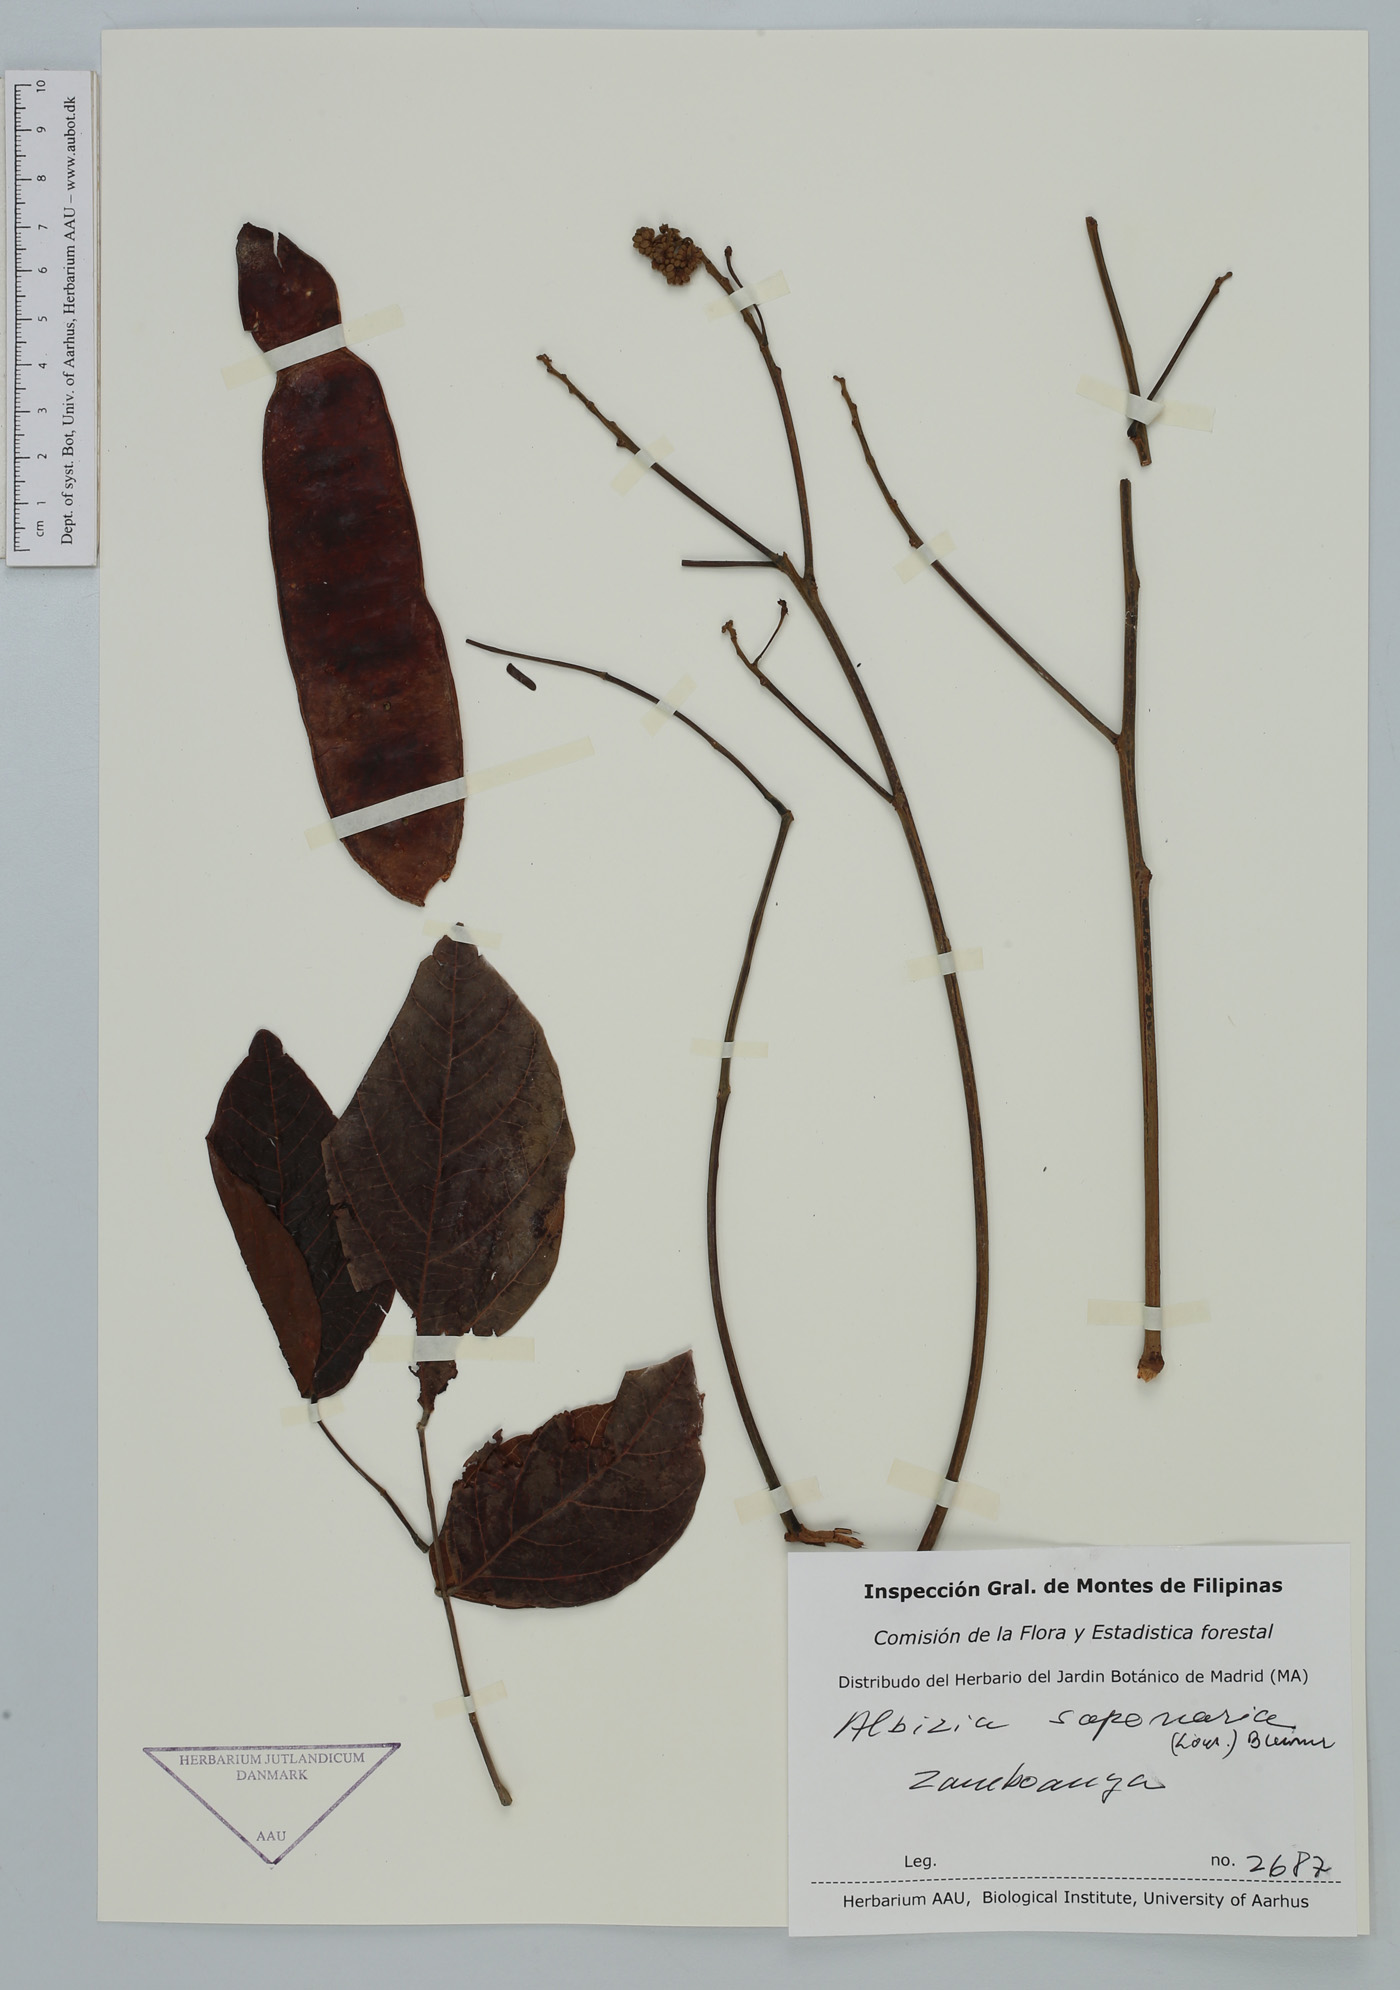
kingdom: Plantae
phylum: Tracheophyta
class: Magnoliopsida
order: Fabales
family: Fabaceae
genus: Albizia
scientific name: Albizia saponaria
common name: Whiteflower albizia
